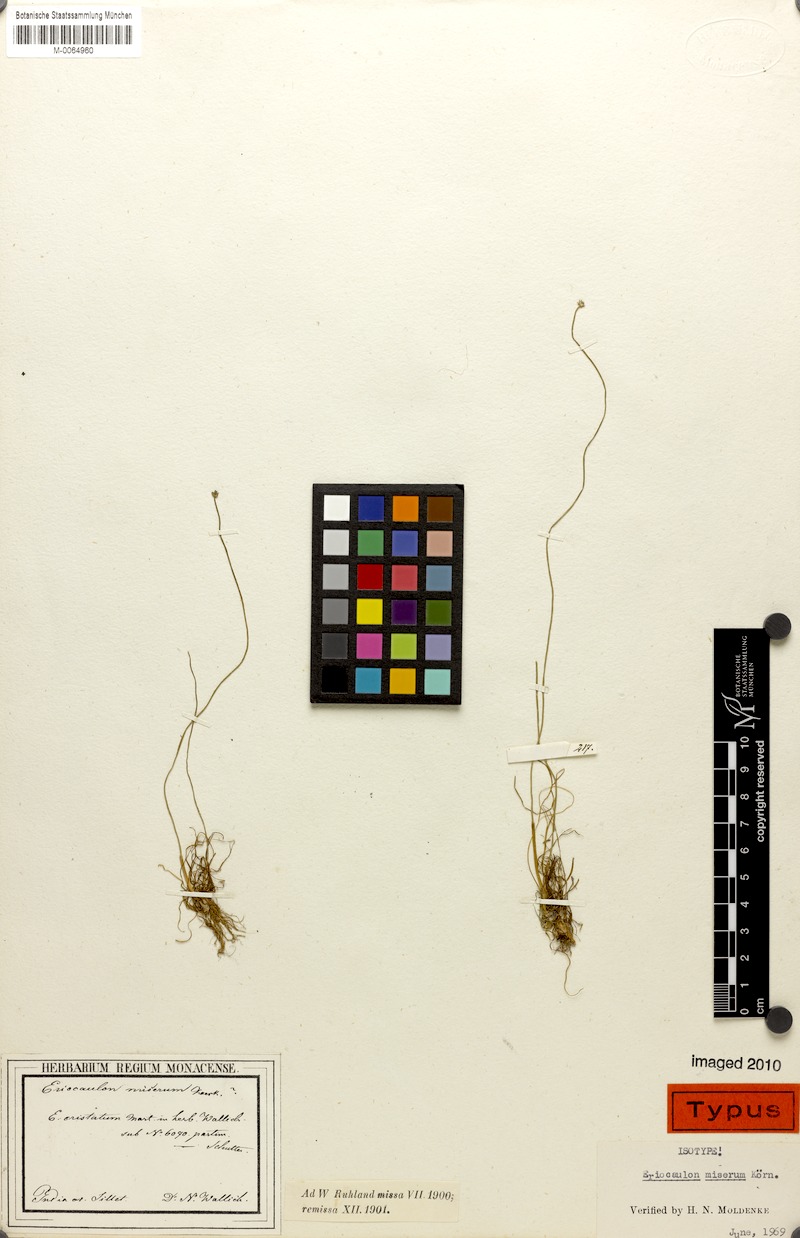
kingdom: Plantae
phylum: Tracheophyta
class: Liliopsida
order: Poales
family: Eriocaulaceae
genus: Eriocaulon
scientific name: Eriocaulon miserum
